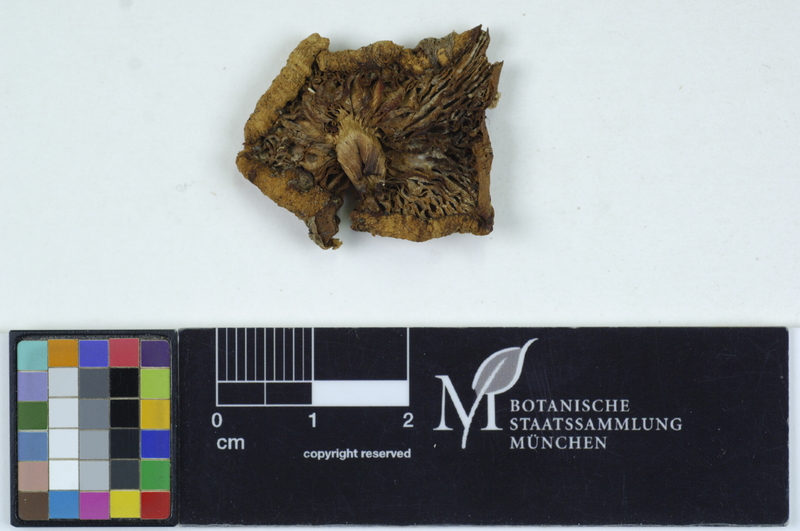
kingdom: Fungi
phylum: Basidiomycota
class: Agaricomycetes
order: Agaricales
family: Omphalotaceae
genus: Gymnopus
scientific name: Gymnopus dryophilus
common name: Penny top
